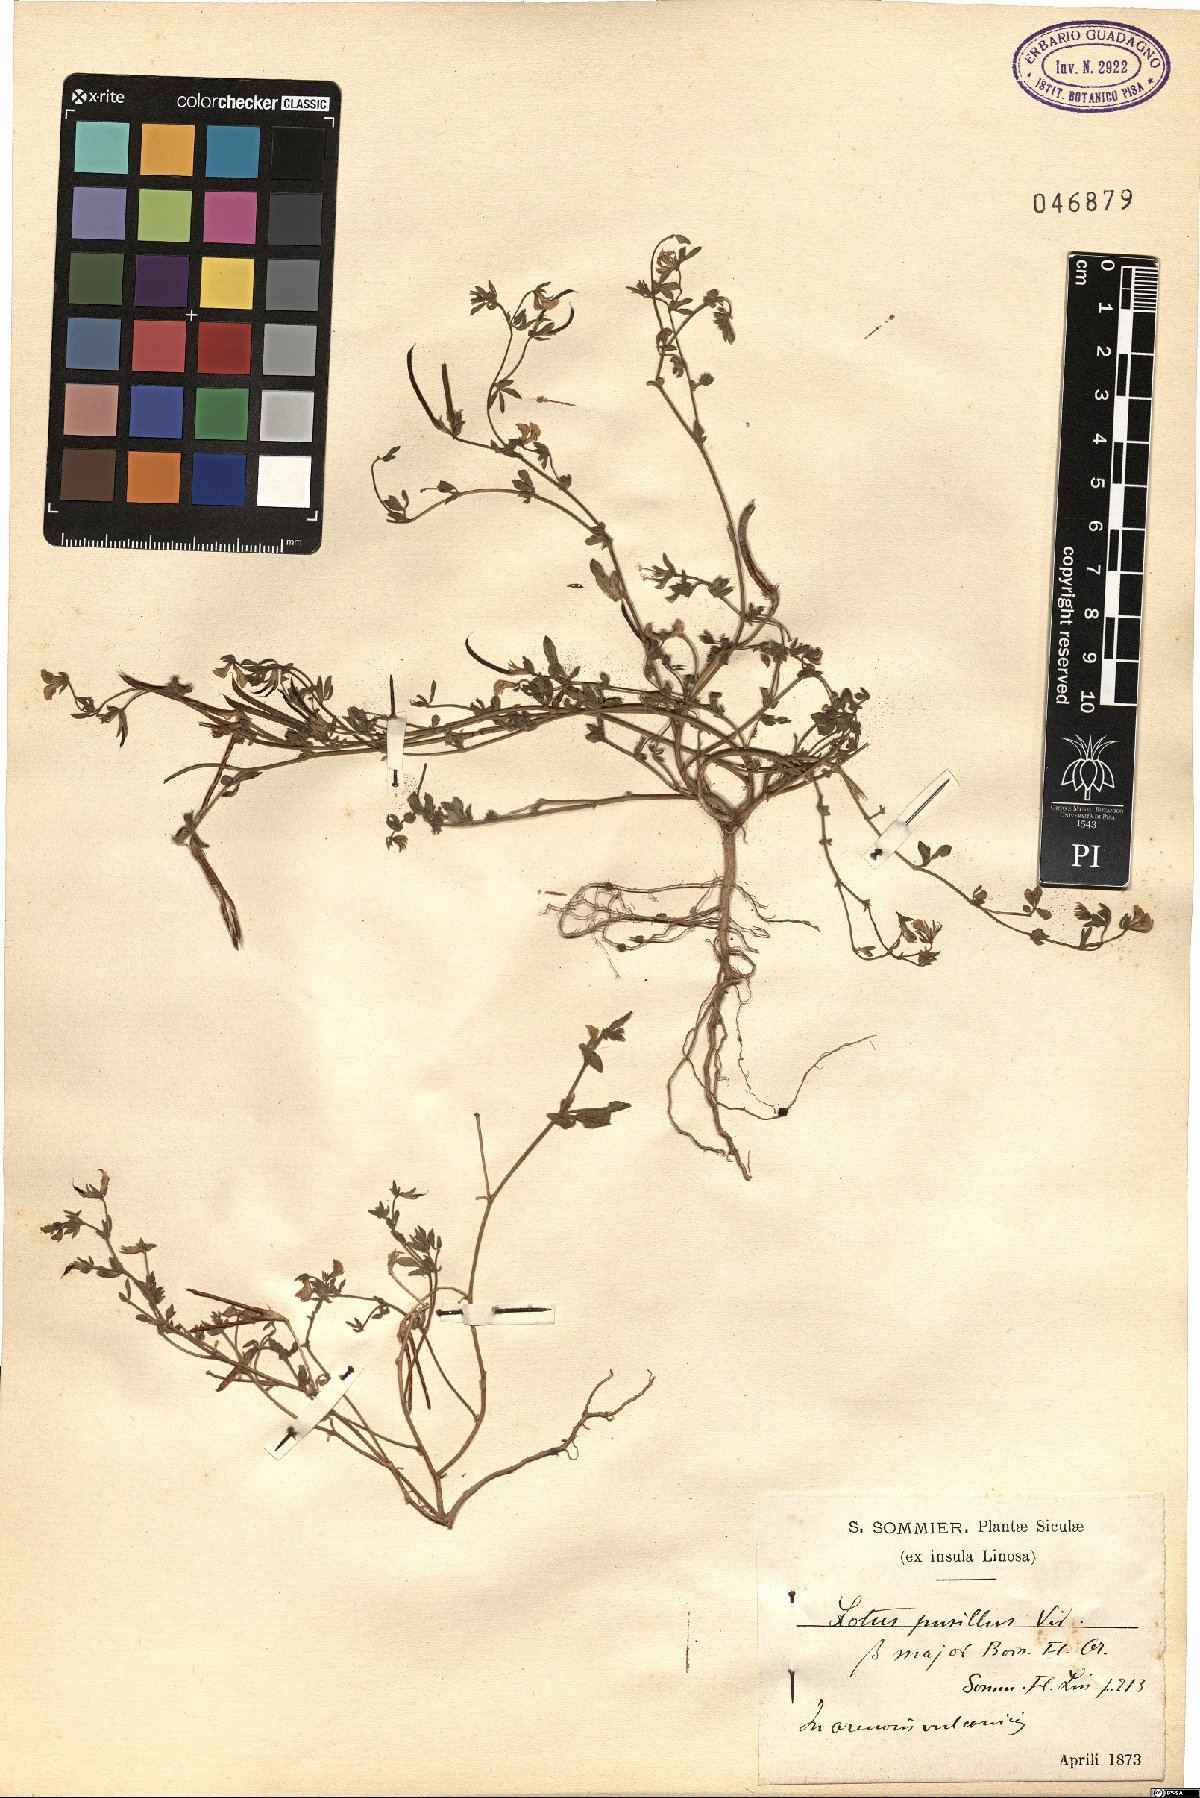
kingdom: Plantae
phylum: Tracheophyta
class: Magnoliopsida
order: Fabales
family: Fabaceae
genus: Lotus
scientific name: Lotus halophilus
